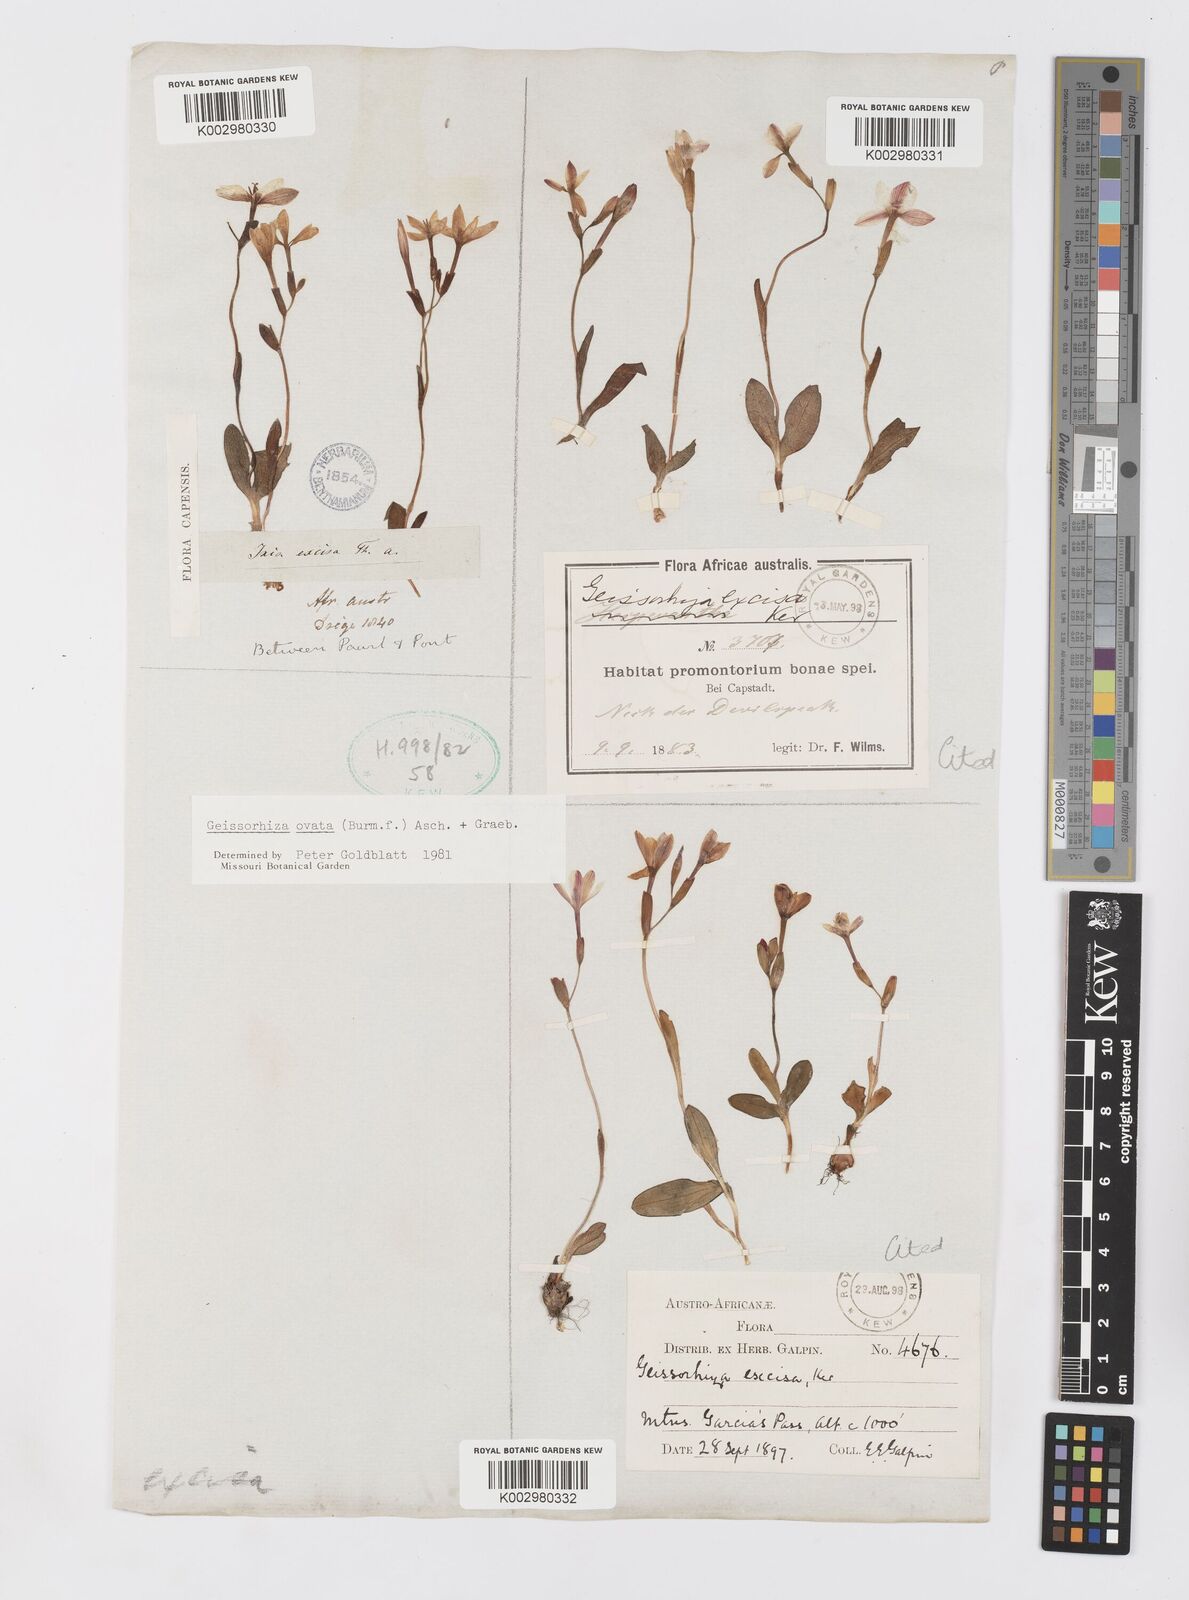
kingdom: Plantae
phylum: Tracheophyta
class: Liliopsida
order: Asparagales
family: Iridaceae
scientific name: Iridaceae
